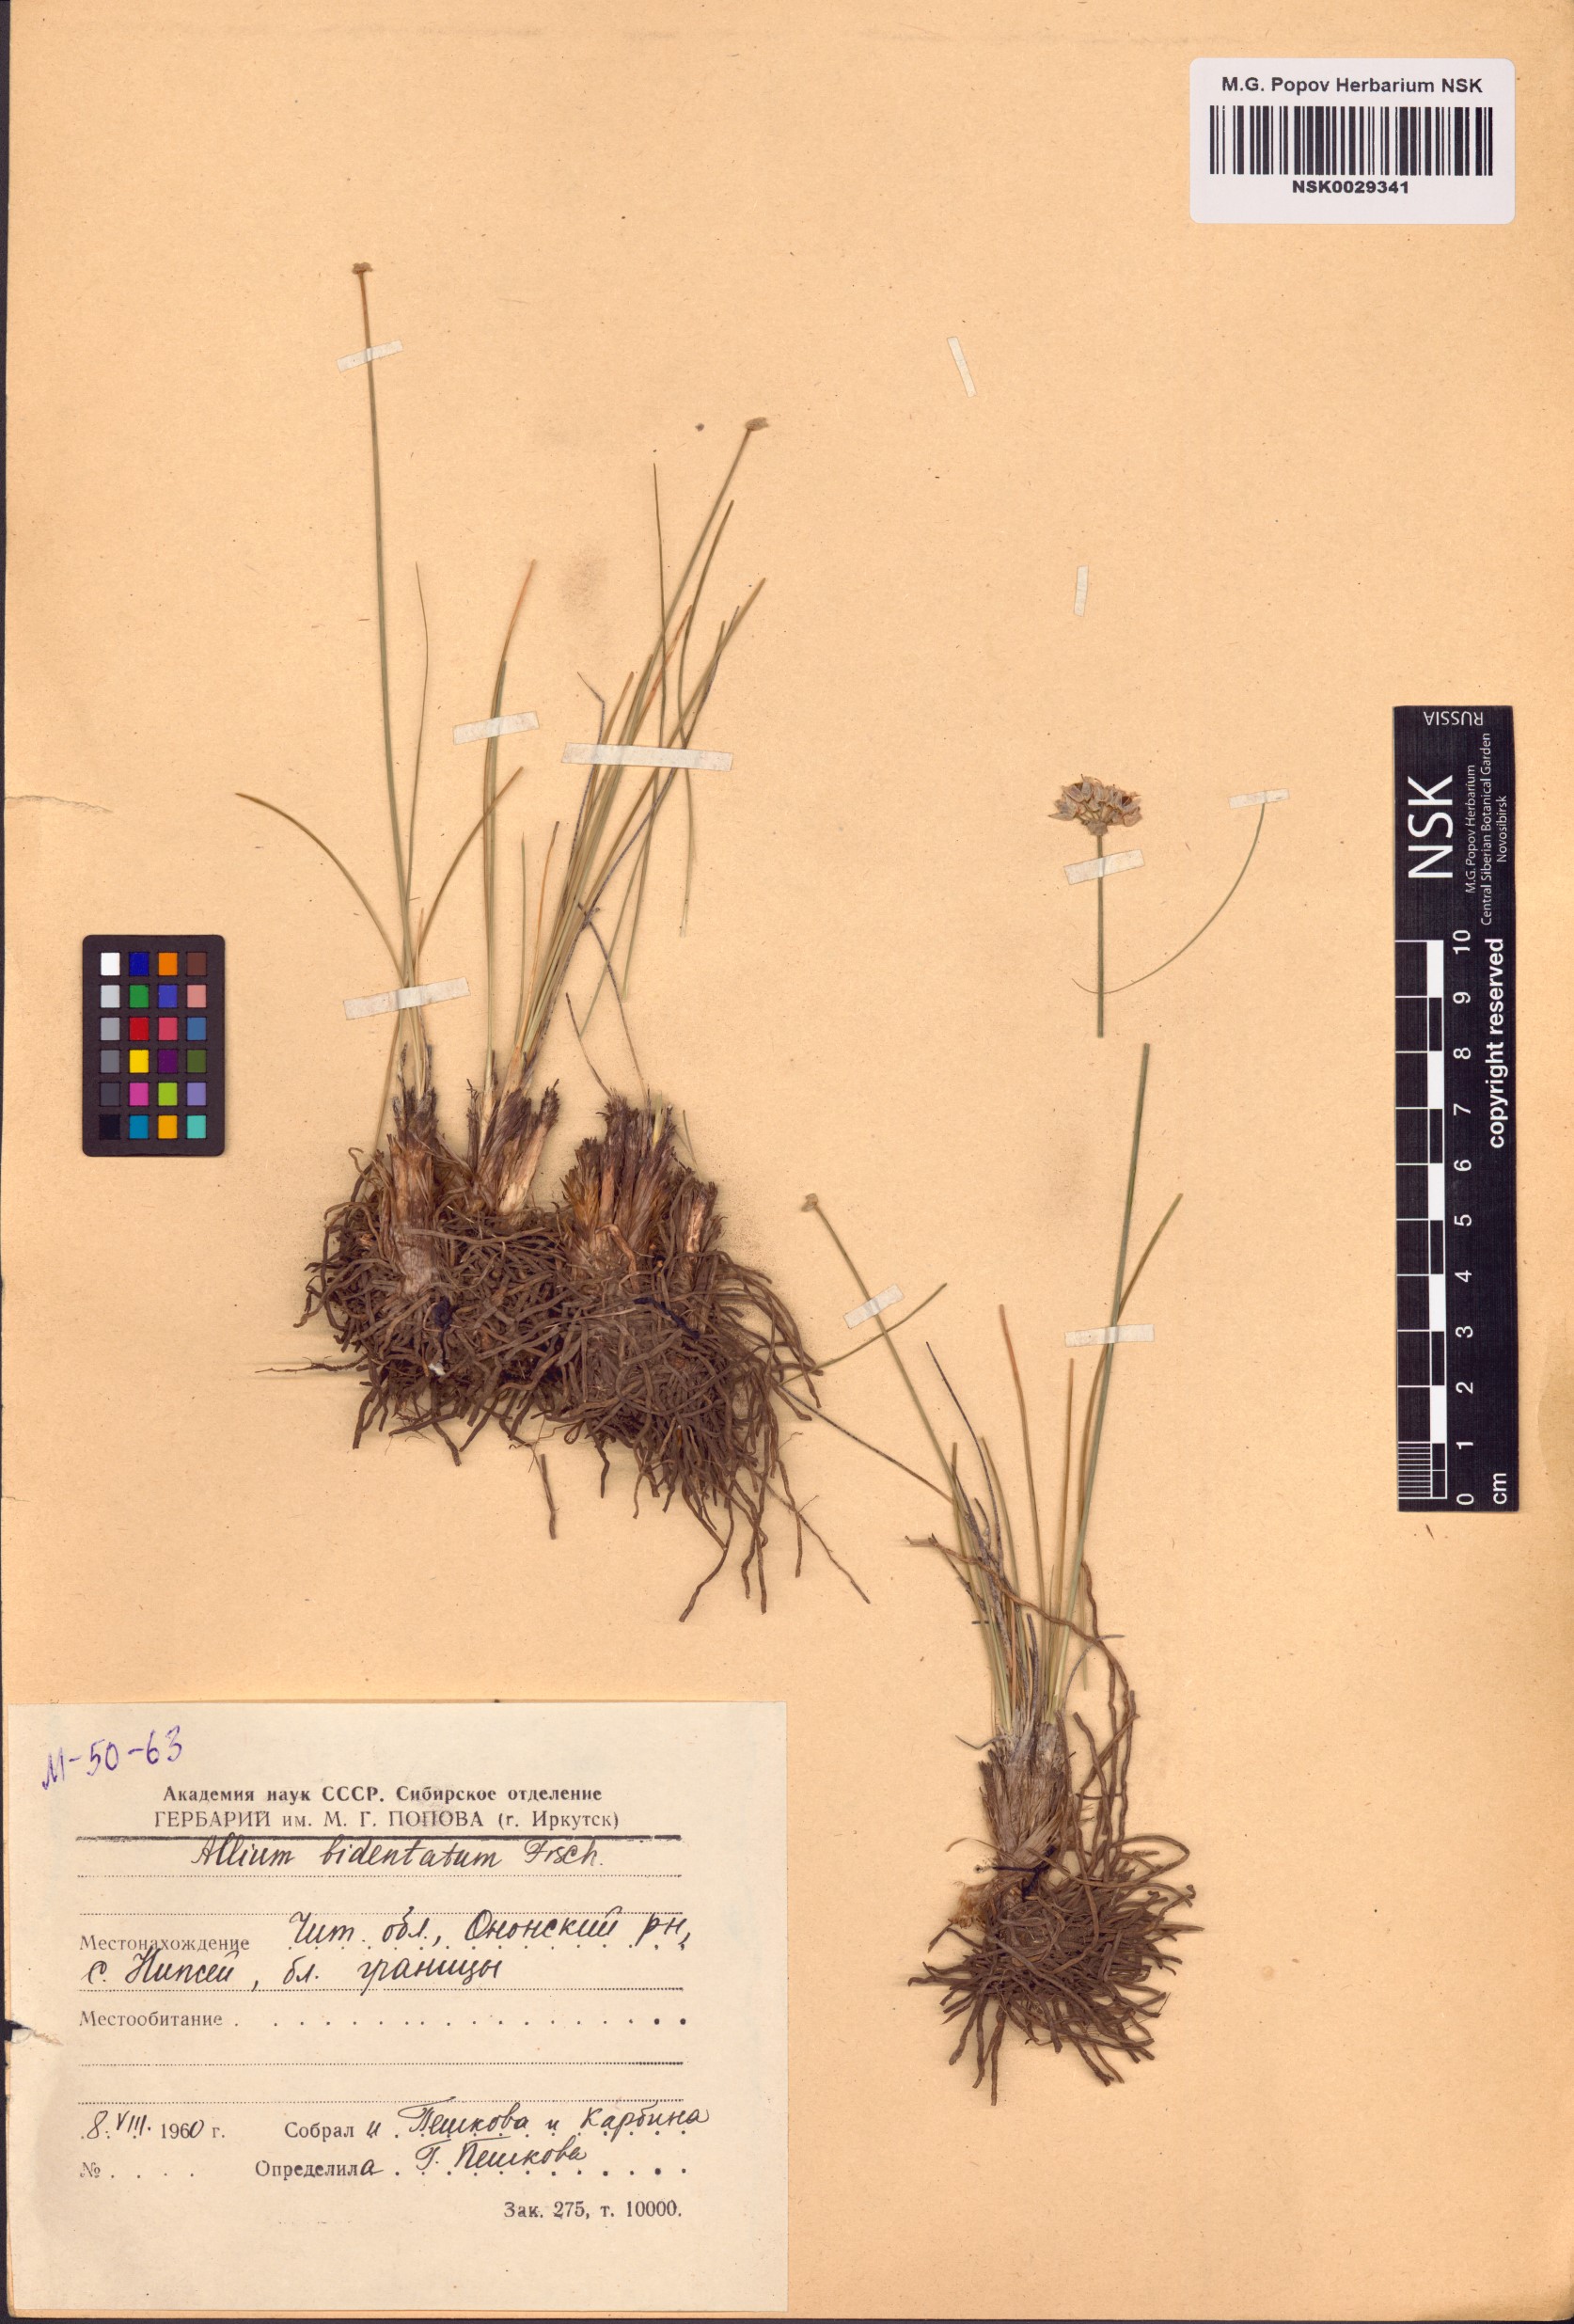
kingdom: Plantae
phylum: Tracheophyta
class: Liliopsida
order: Asparagales
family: Amaryllidaceae
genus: Allium
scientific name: Allium bidentatum
